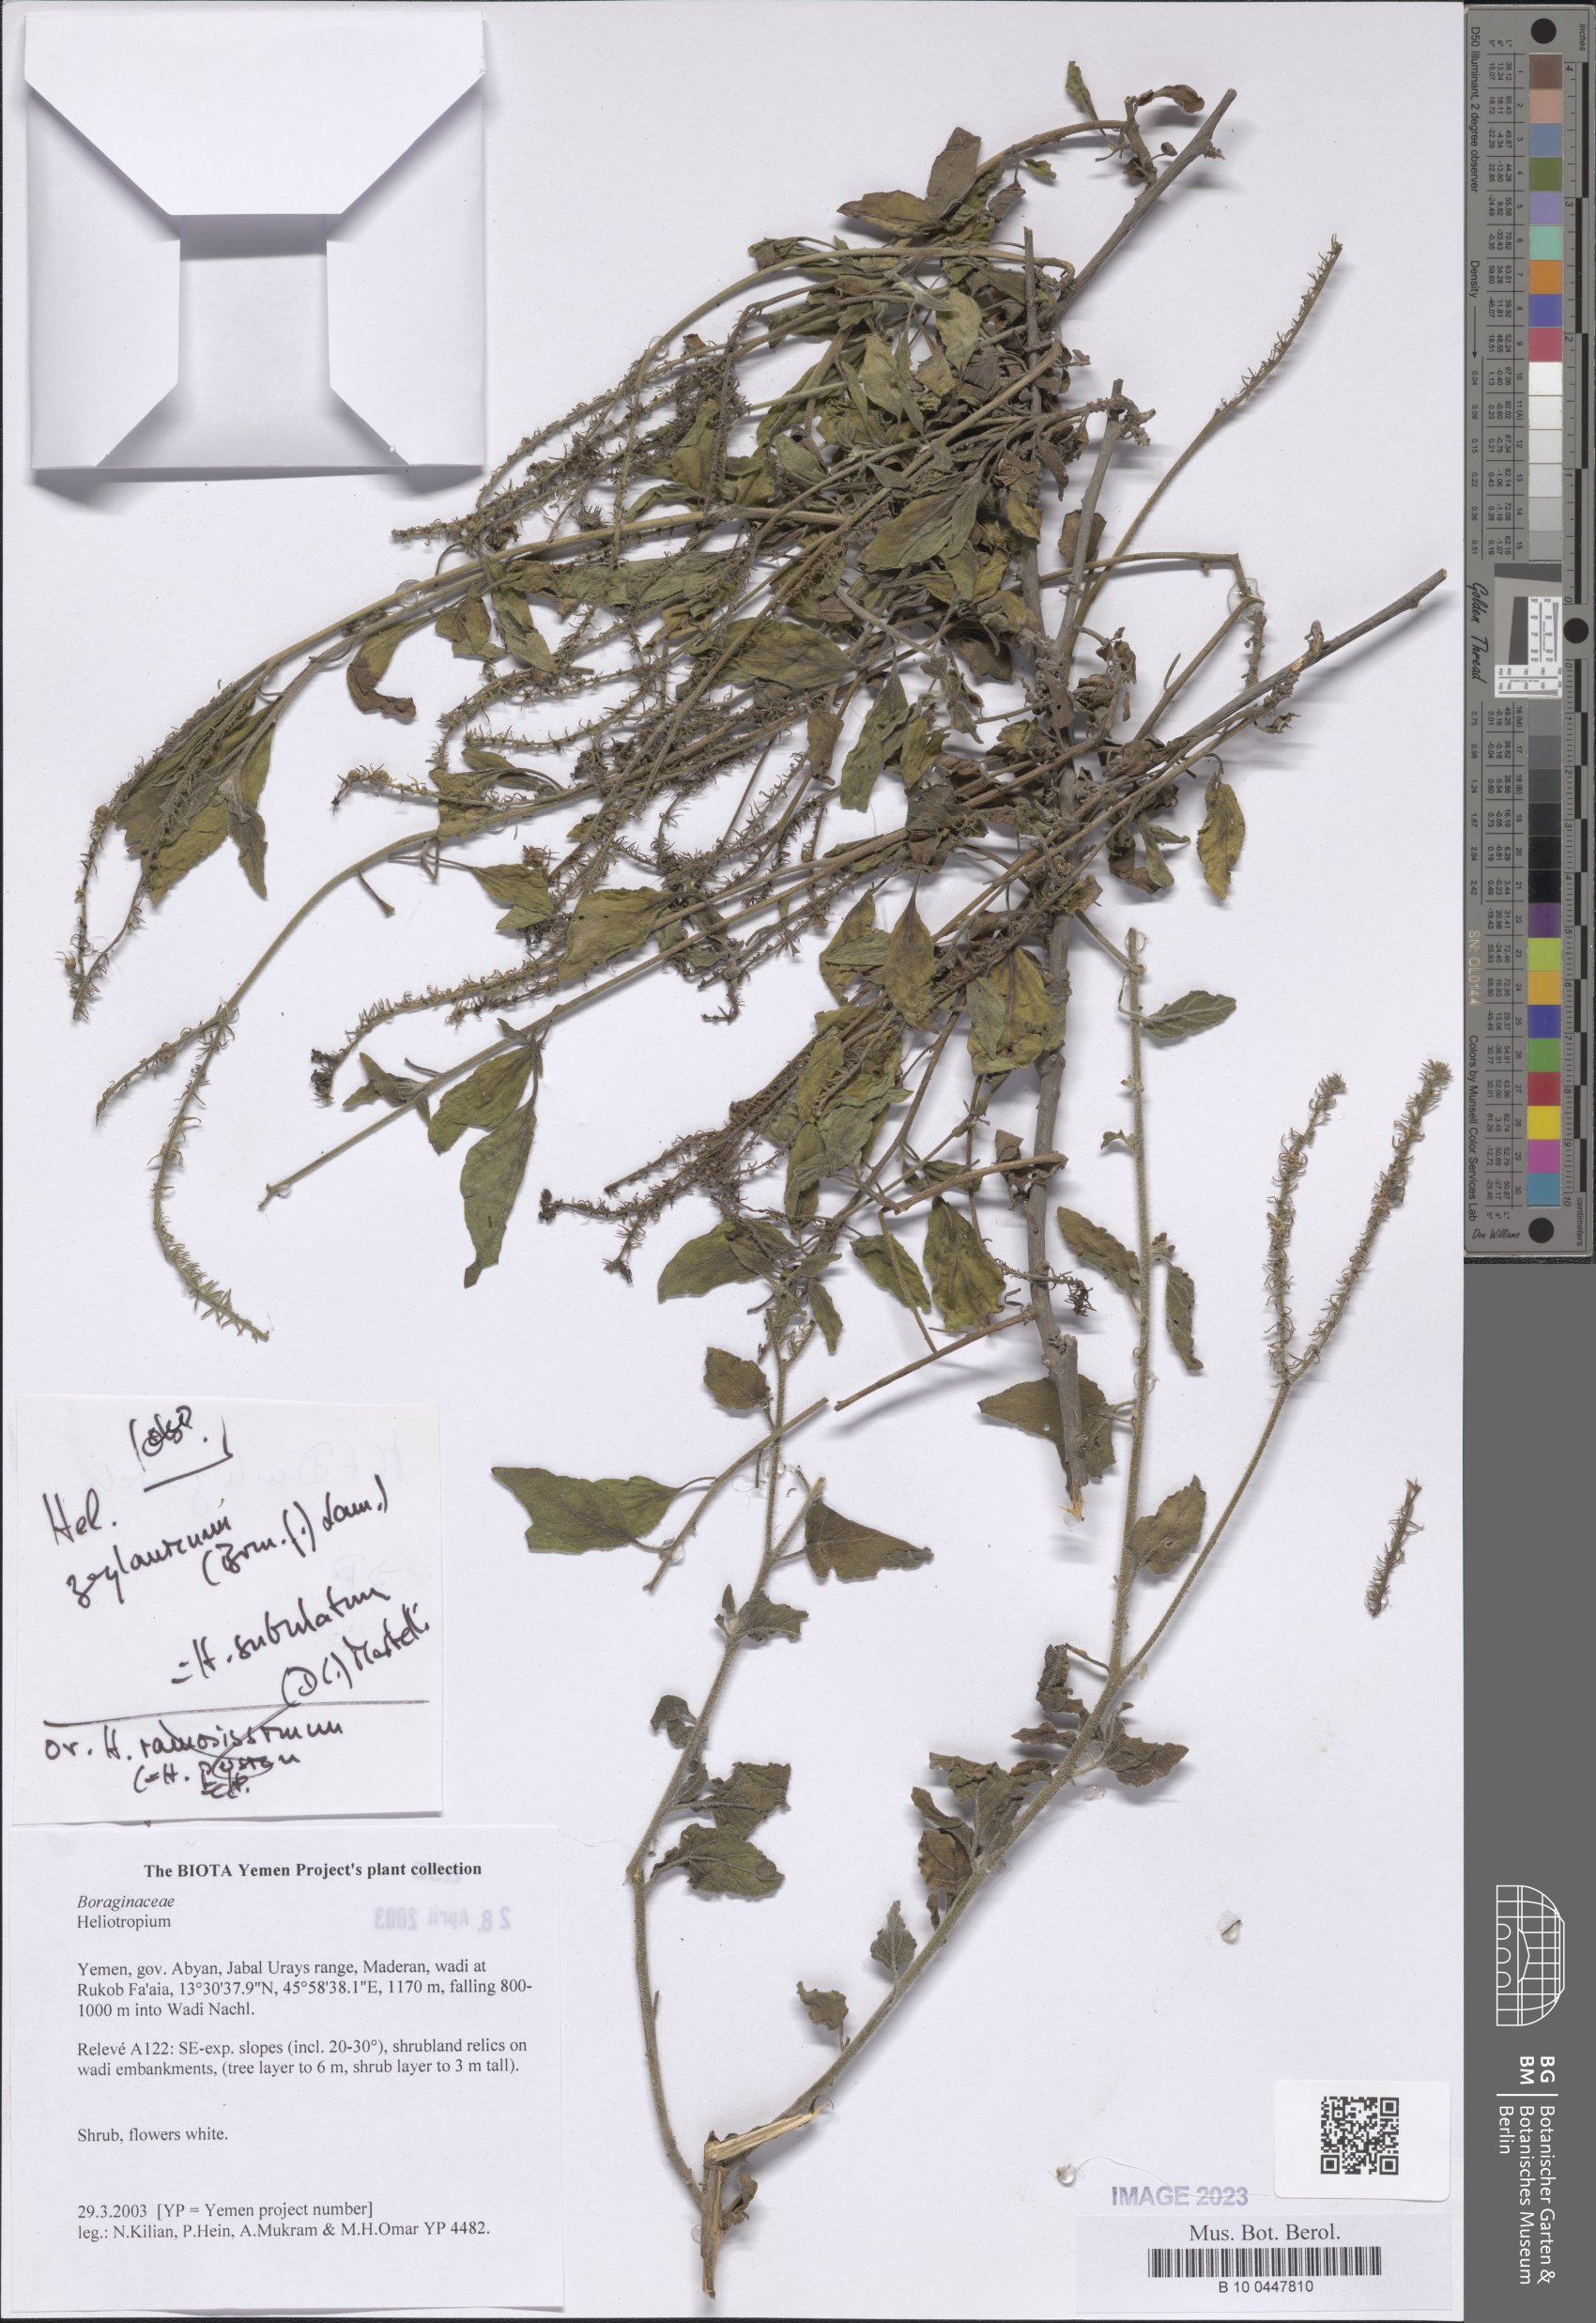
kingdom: Plantae
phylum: Tracheophyta
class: Magnoliopsida
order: Boraginales
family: Heliotropiaceae
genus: Heliotropium
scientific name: Heliotropium
